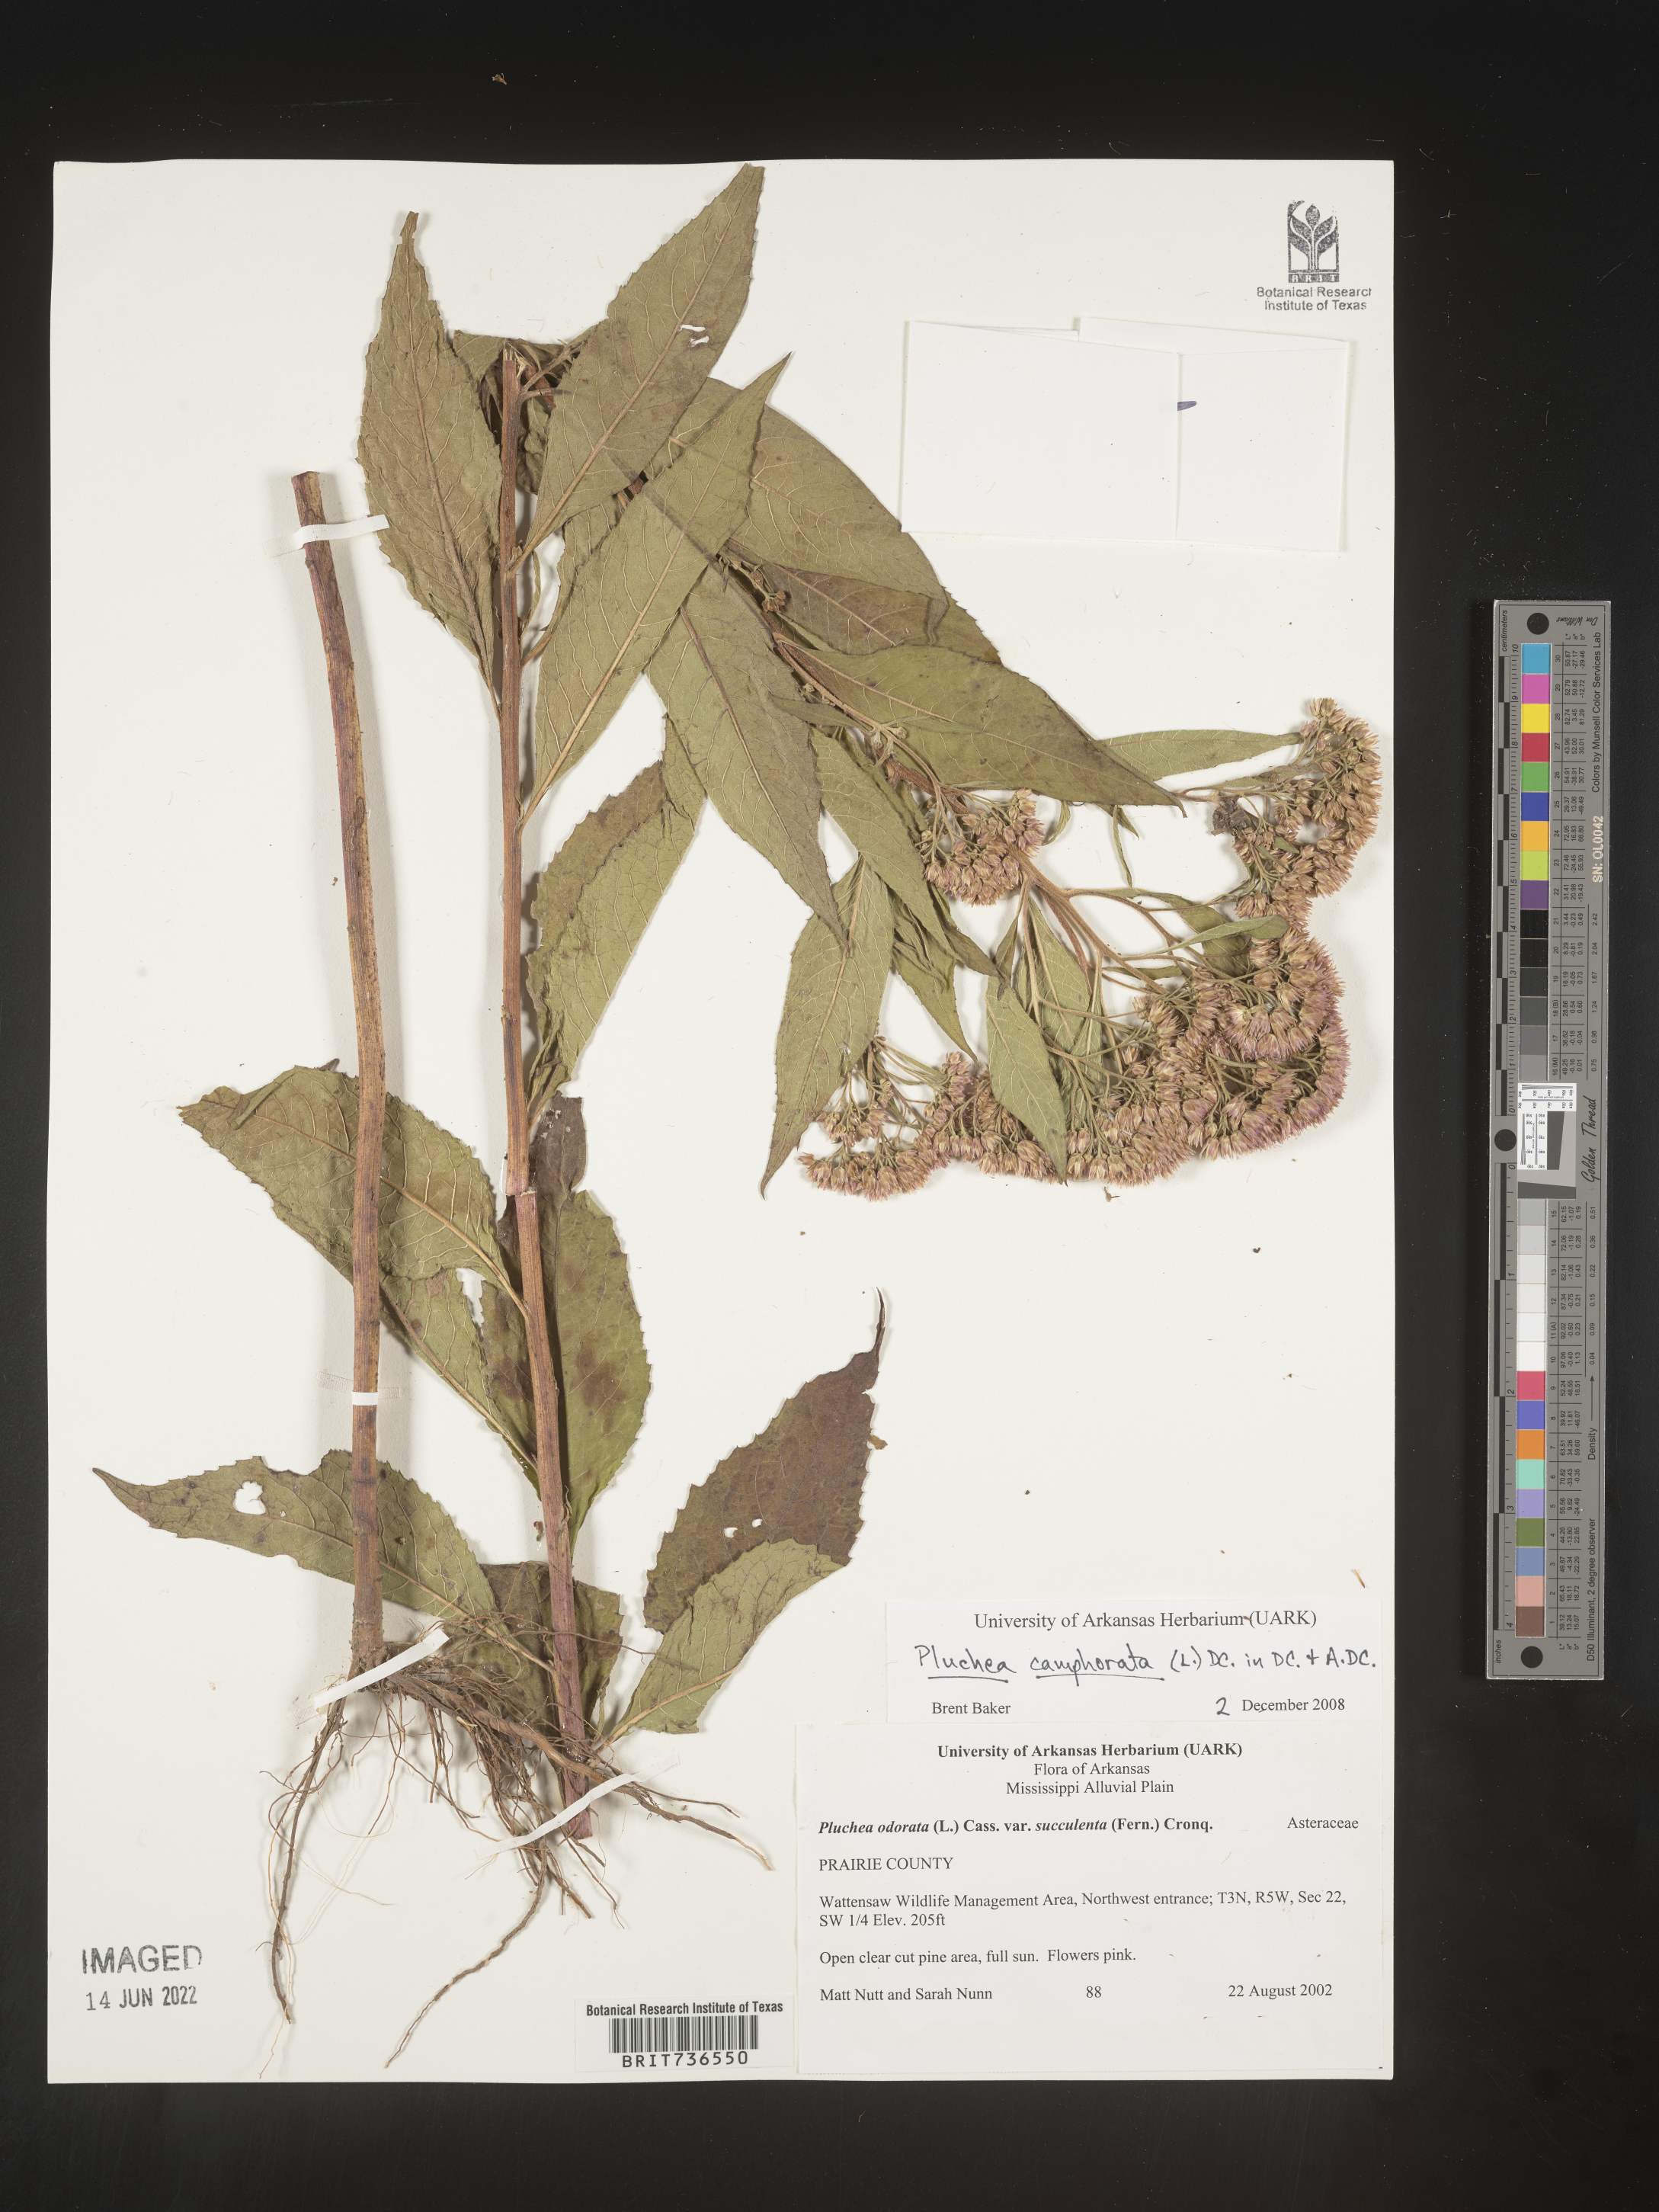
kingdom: Plantae
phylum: Tracheophyta
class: Magnoliopsida
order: Asterales
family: Asteraceae
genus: Pluchea
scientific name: Pluchea camphorata
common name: Camphor pluchea
